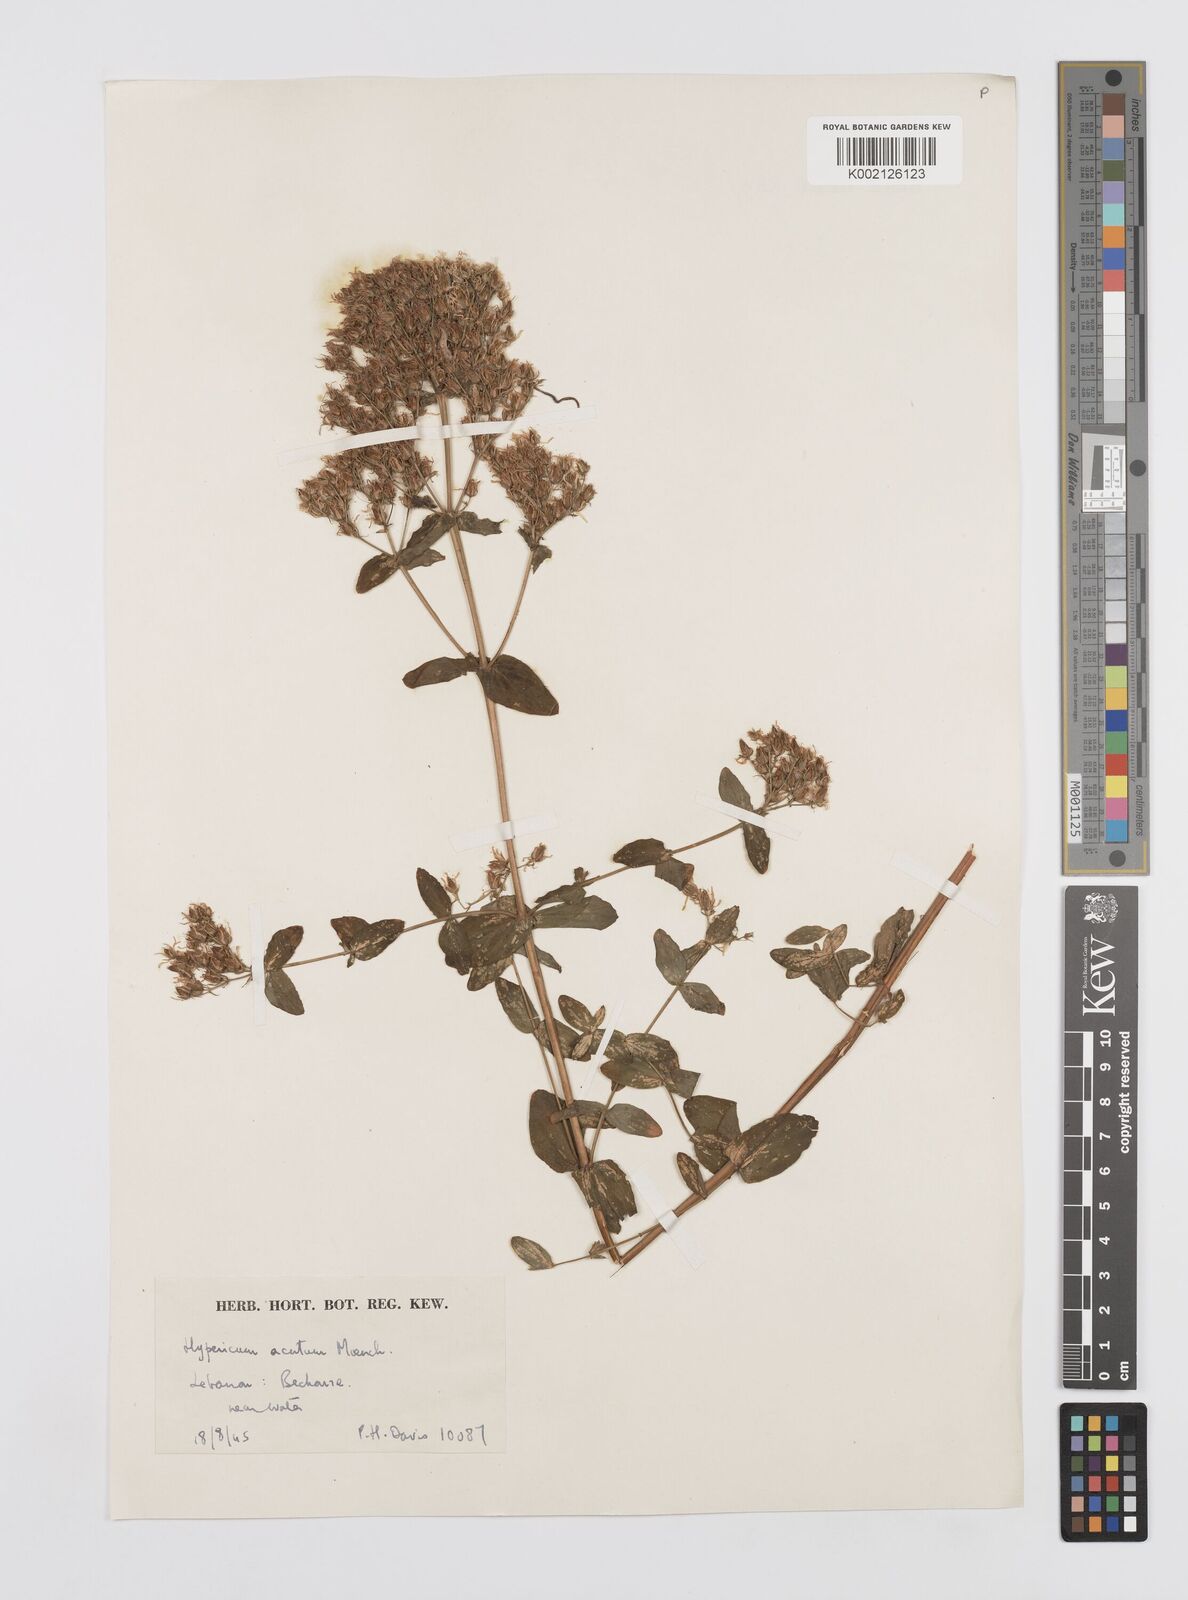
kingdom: Plantae
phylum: Tracheophyta
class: Magnoliopsida
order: Malpighiales
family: Hypericaceae
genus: Hypericum
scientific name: Hypericum tetrapterum
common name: Square-stalked st. john's-wort
